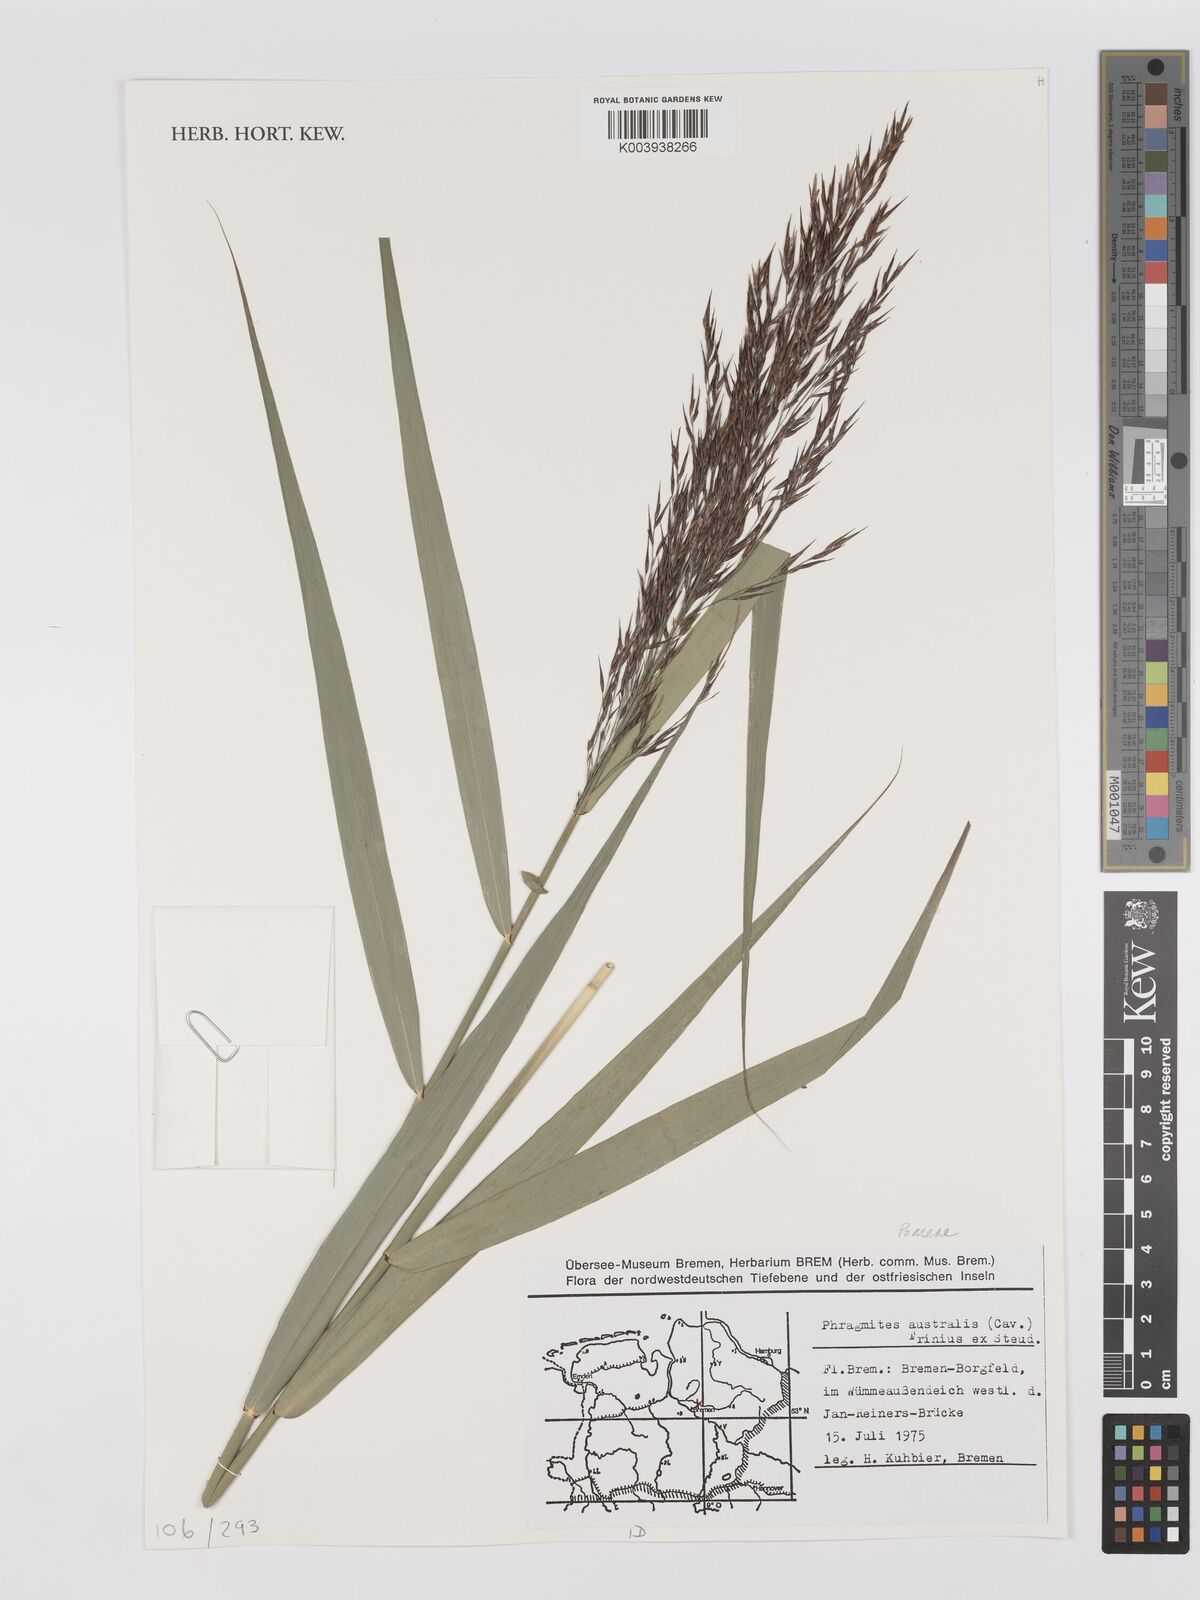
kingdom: Plantae
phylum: Tracheophyta
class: Liliopsida
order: Poales
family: Poaceae
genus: Phragmites
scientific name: Phragmites australis
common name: Common reed
